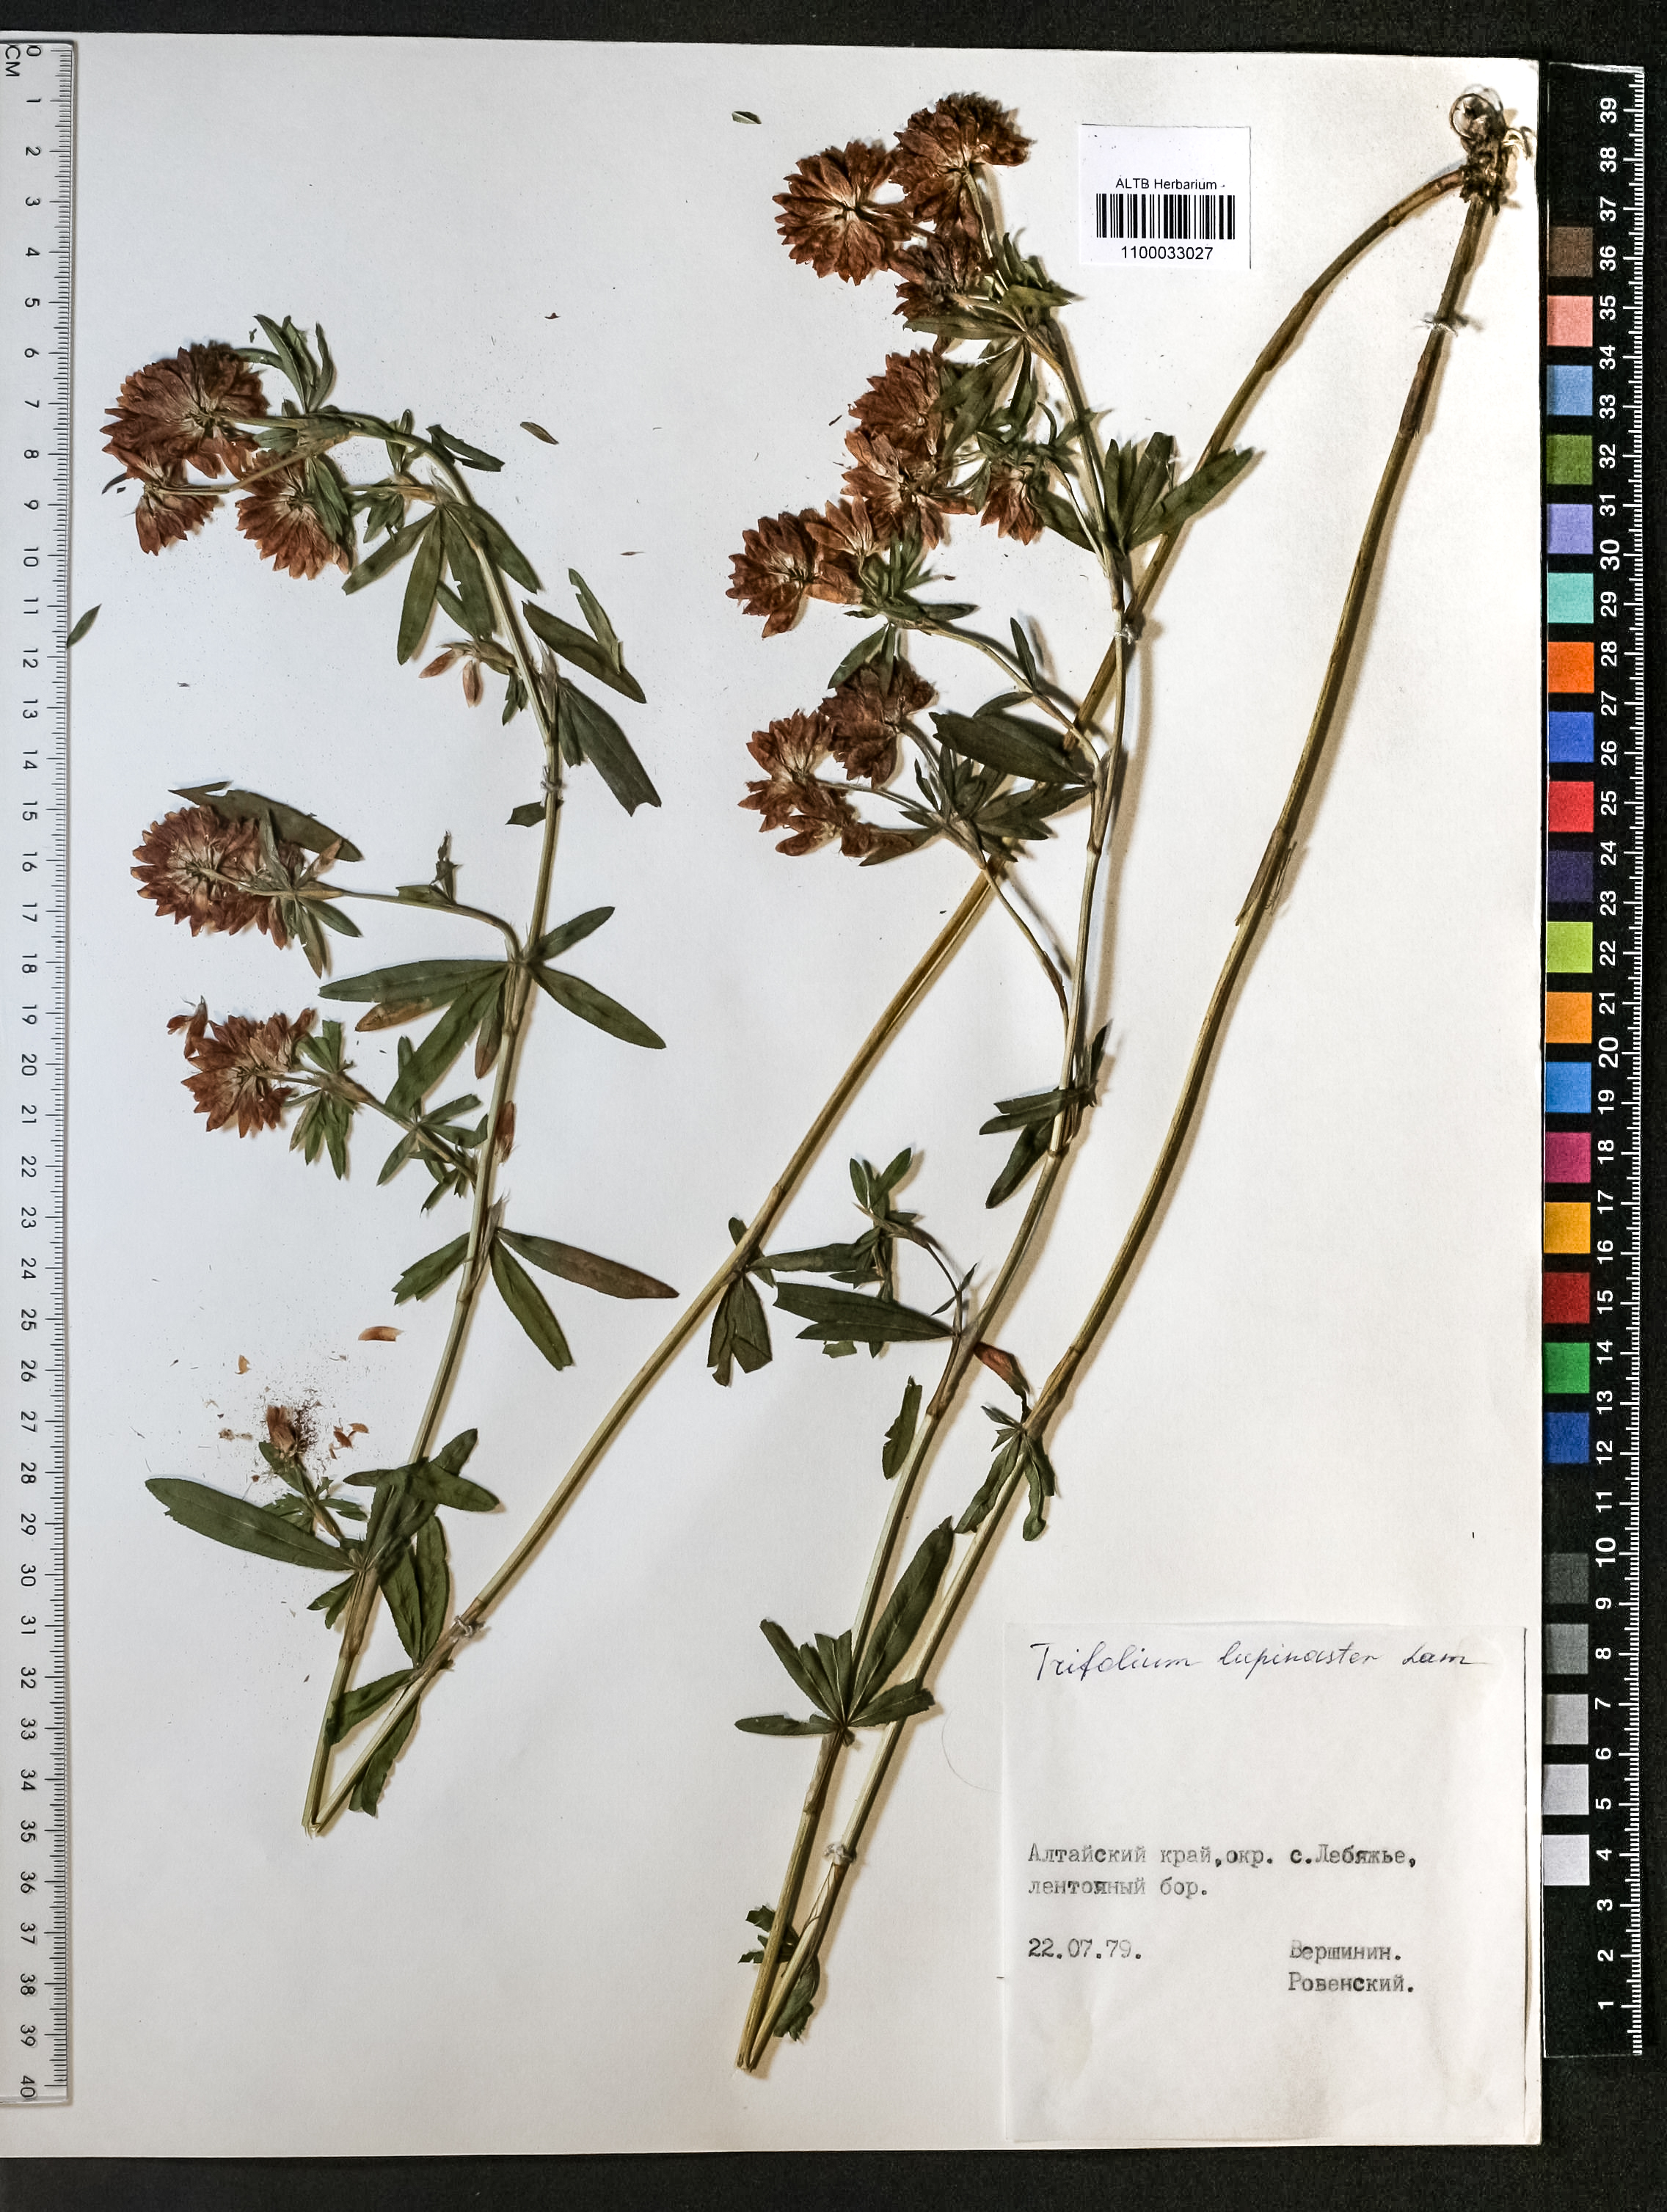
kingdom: Plantae
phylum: Tracheophyta
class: Magnoliopsida
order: Fabales
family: Fabaceae
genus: Trifolium
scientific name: Trifolium lupinaster
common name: Lupine clover
